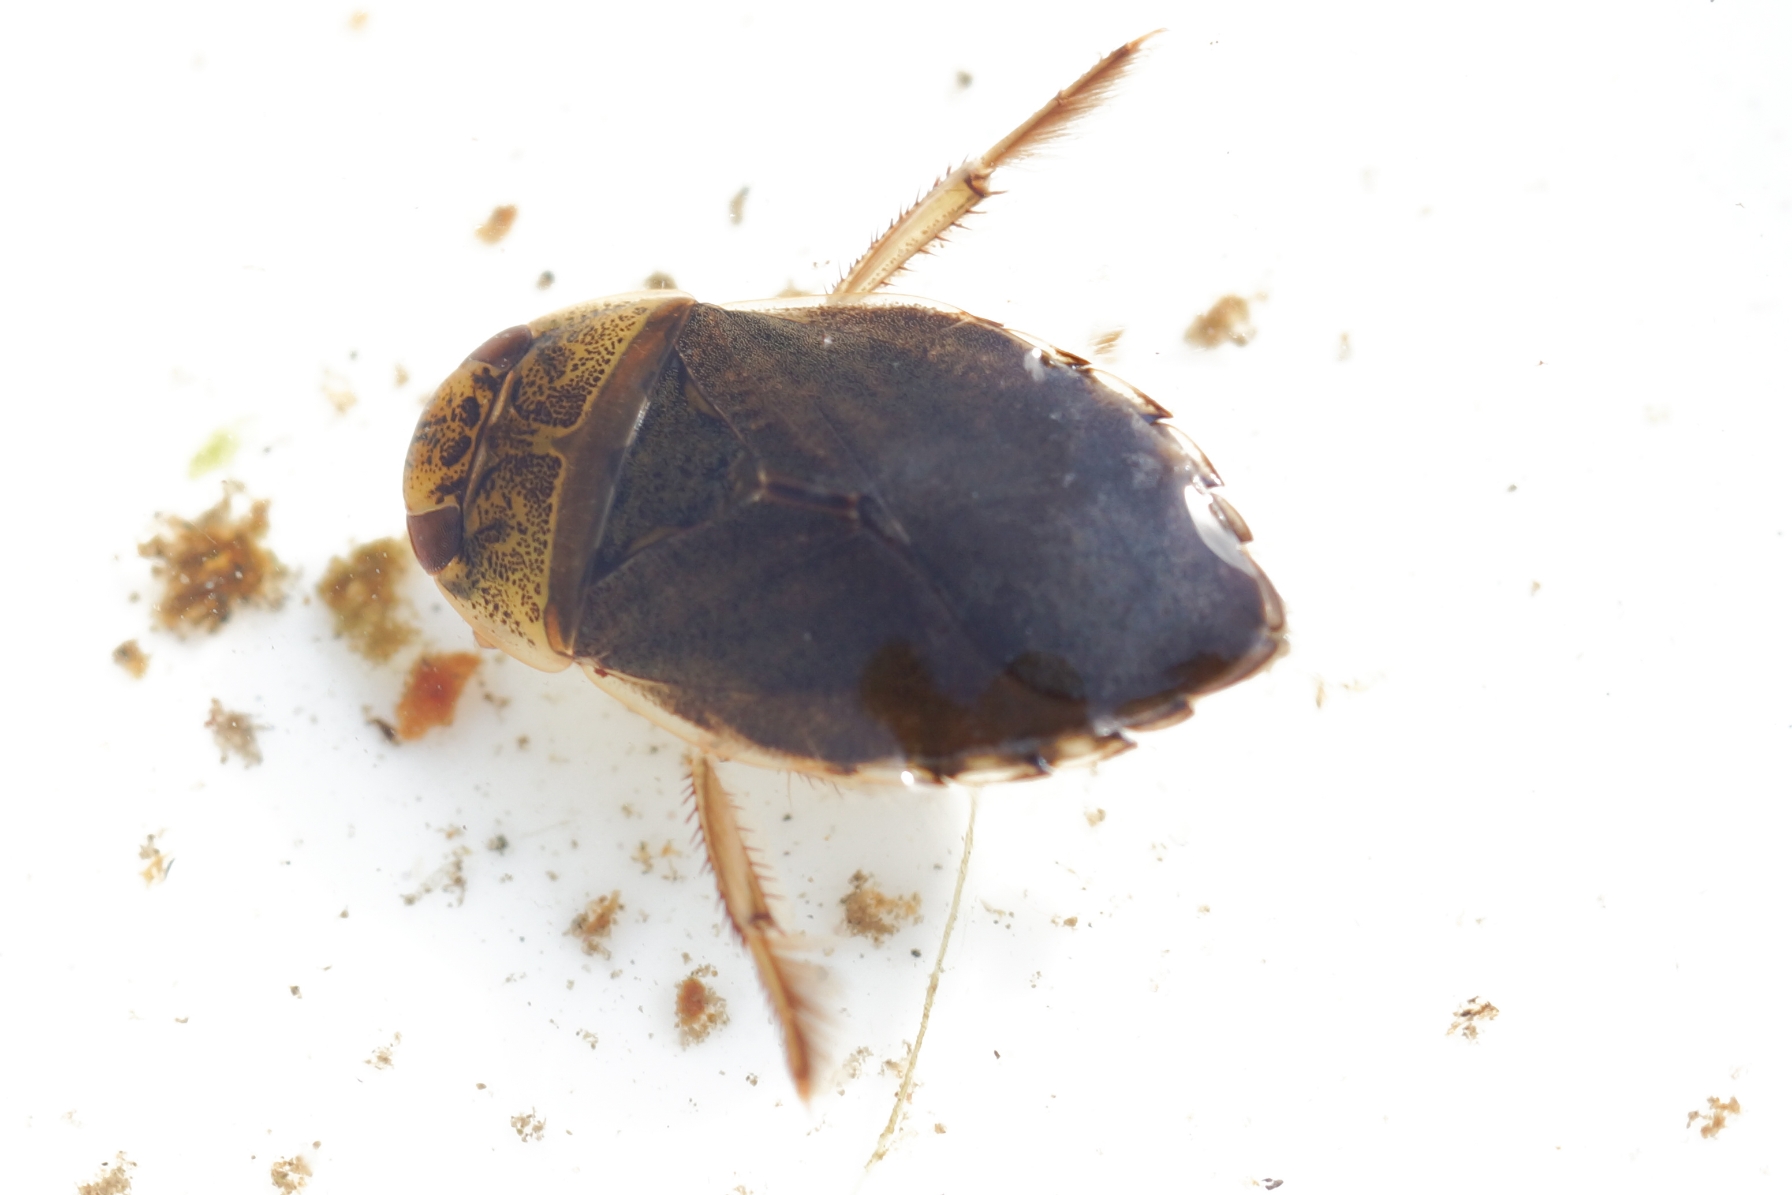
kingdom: Animalia
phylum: Arthropoda
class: Insecta
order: Hemiptera
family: Naucoridae
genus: Ilyocoris
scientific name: Ilyocoris cimicoides
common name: Vandrøver
